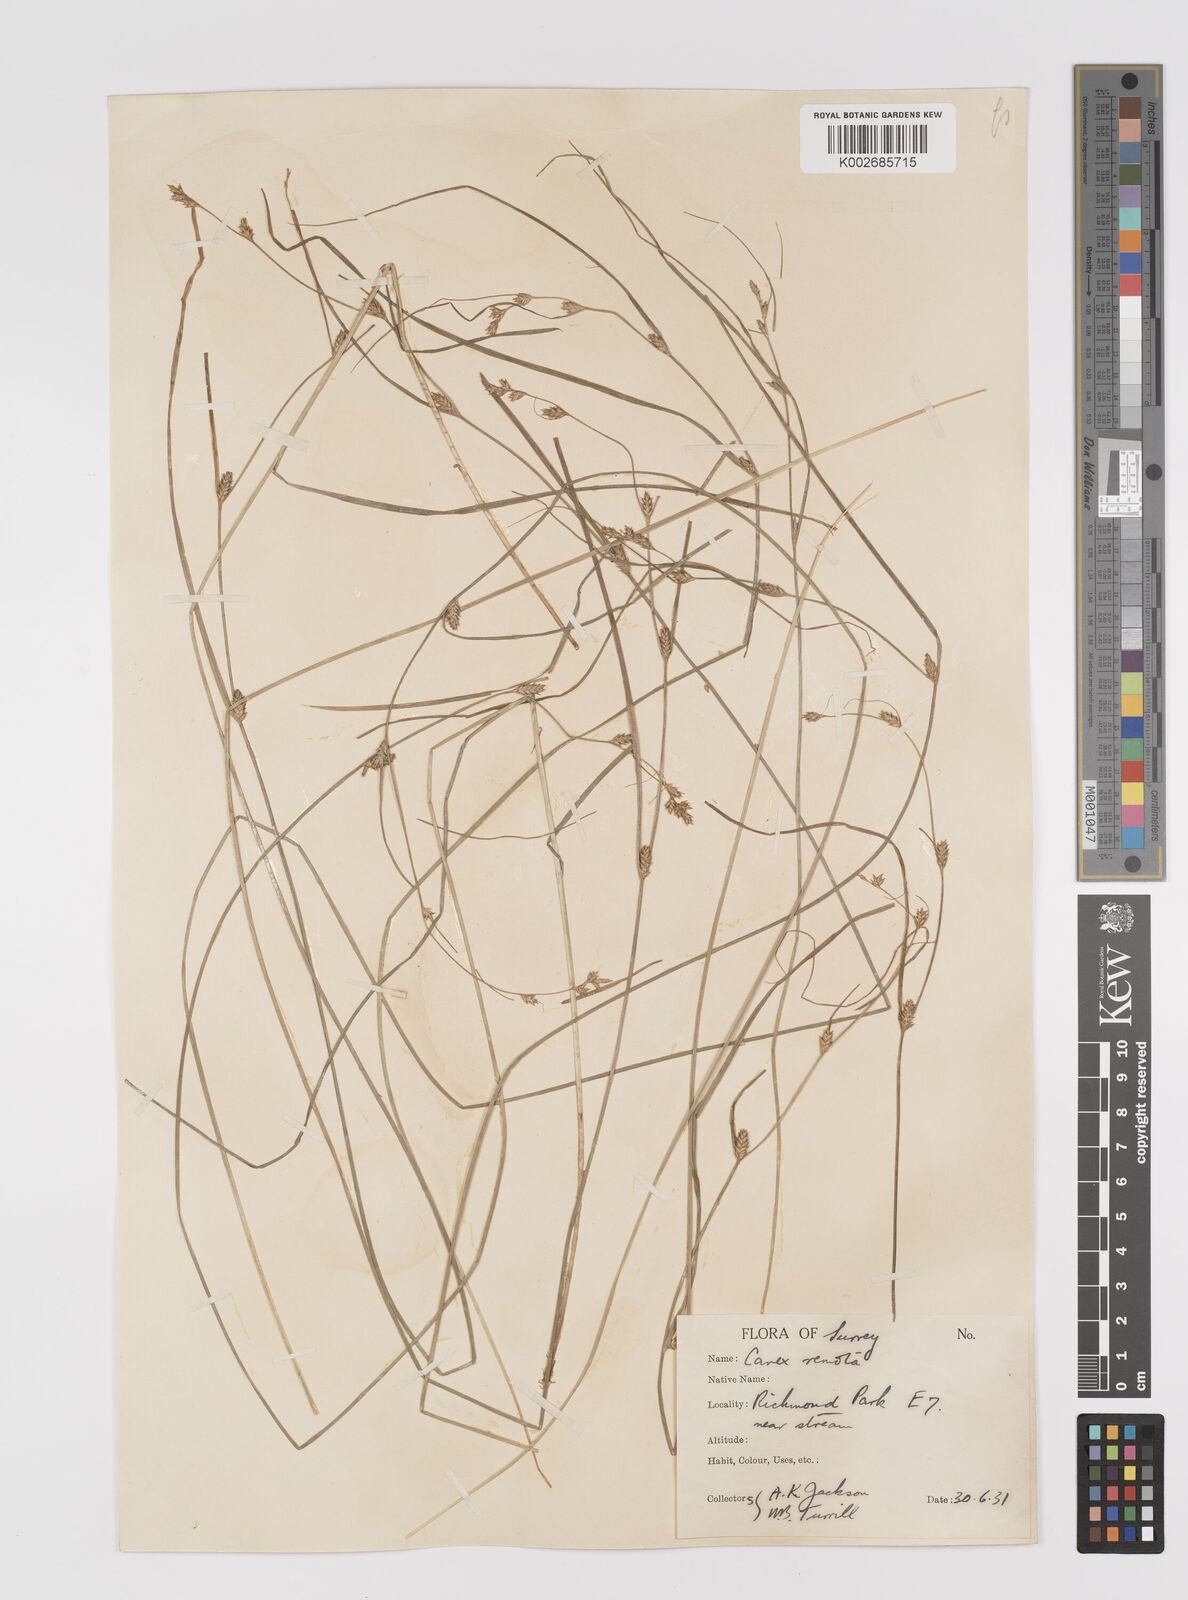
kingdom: Plantae
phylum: Tracheophyta
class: Liliopsida
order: Poales
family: Cyperaceae
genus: Carex
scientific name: Carex remota
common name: Remote sedge
